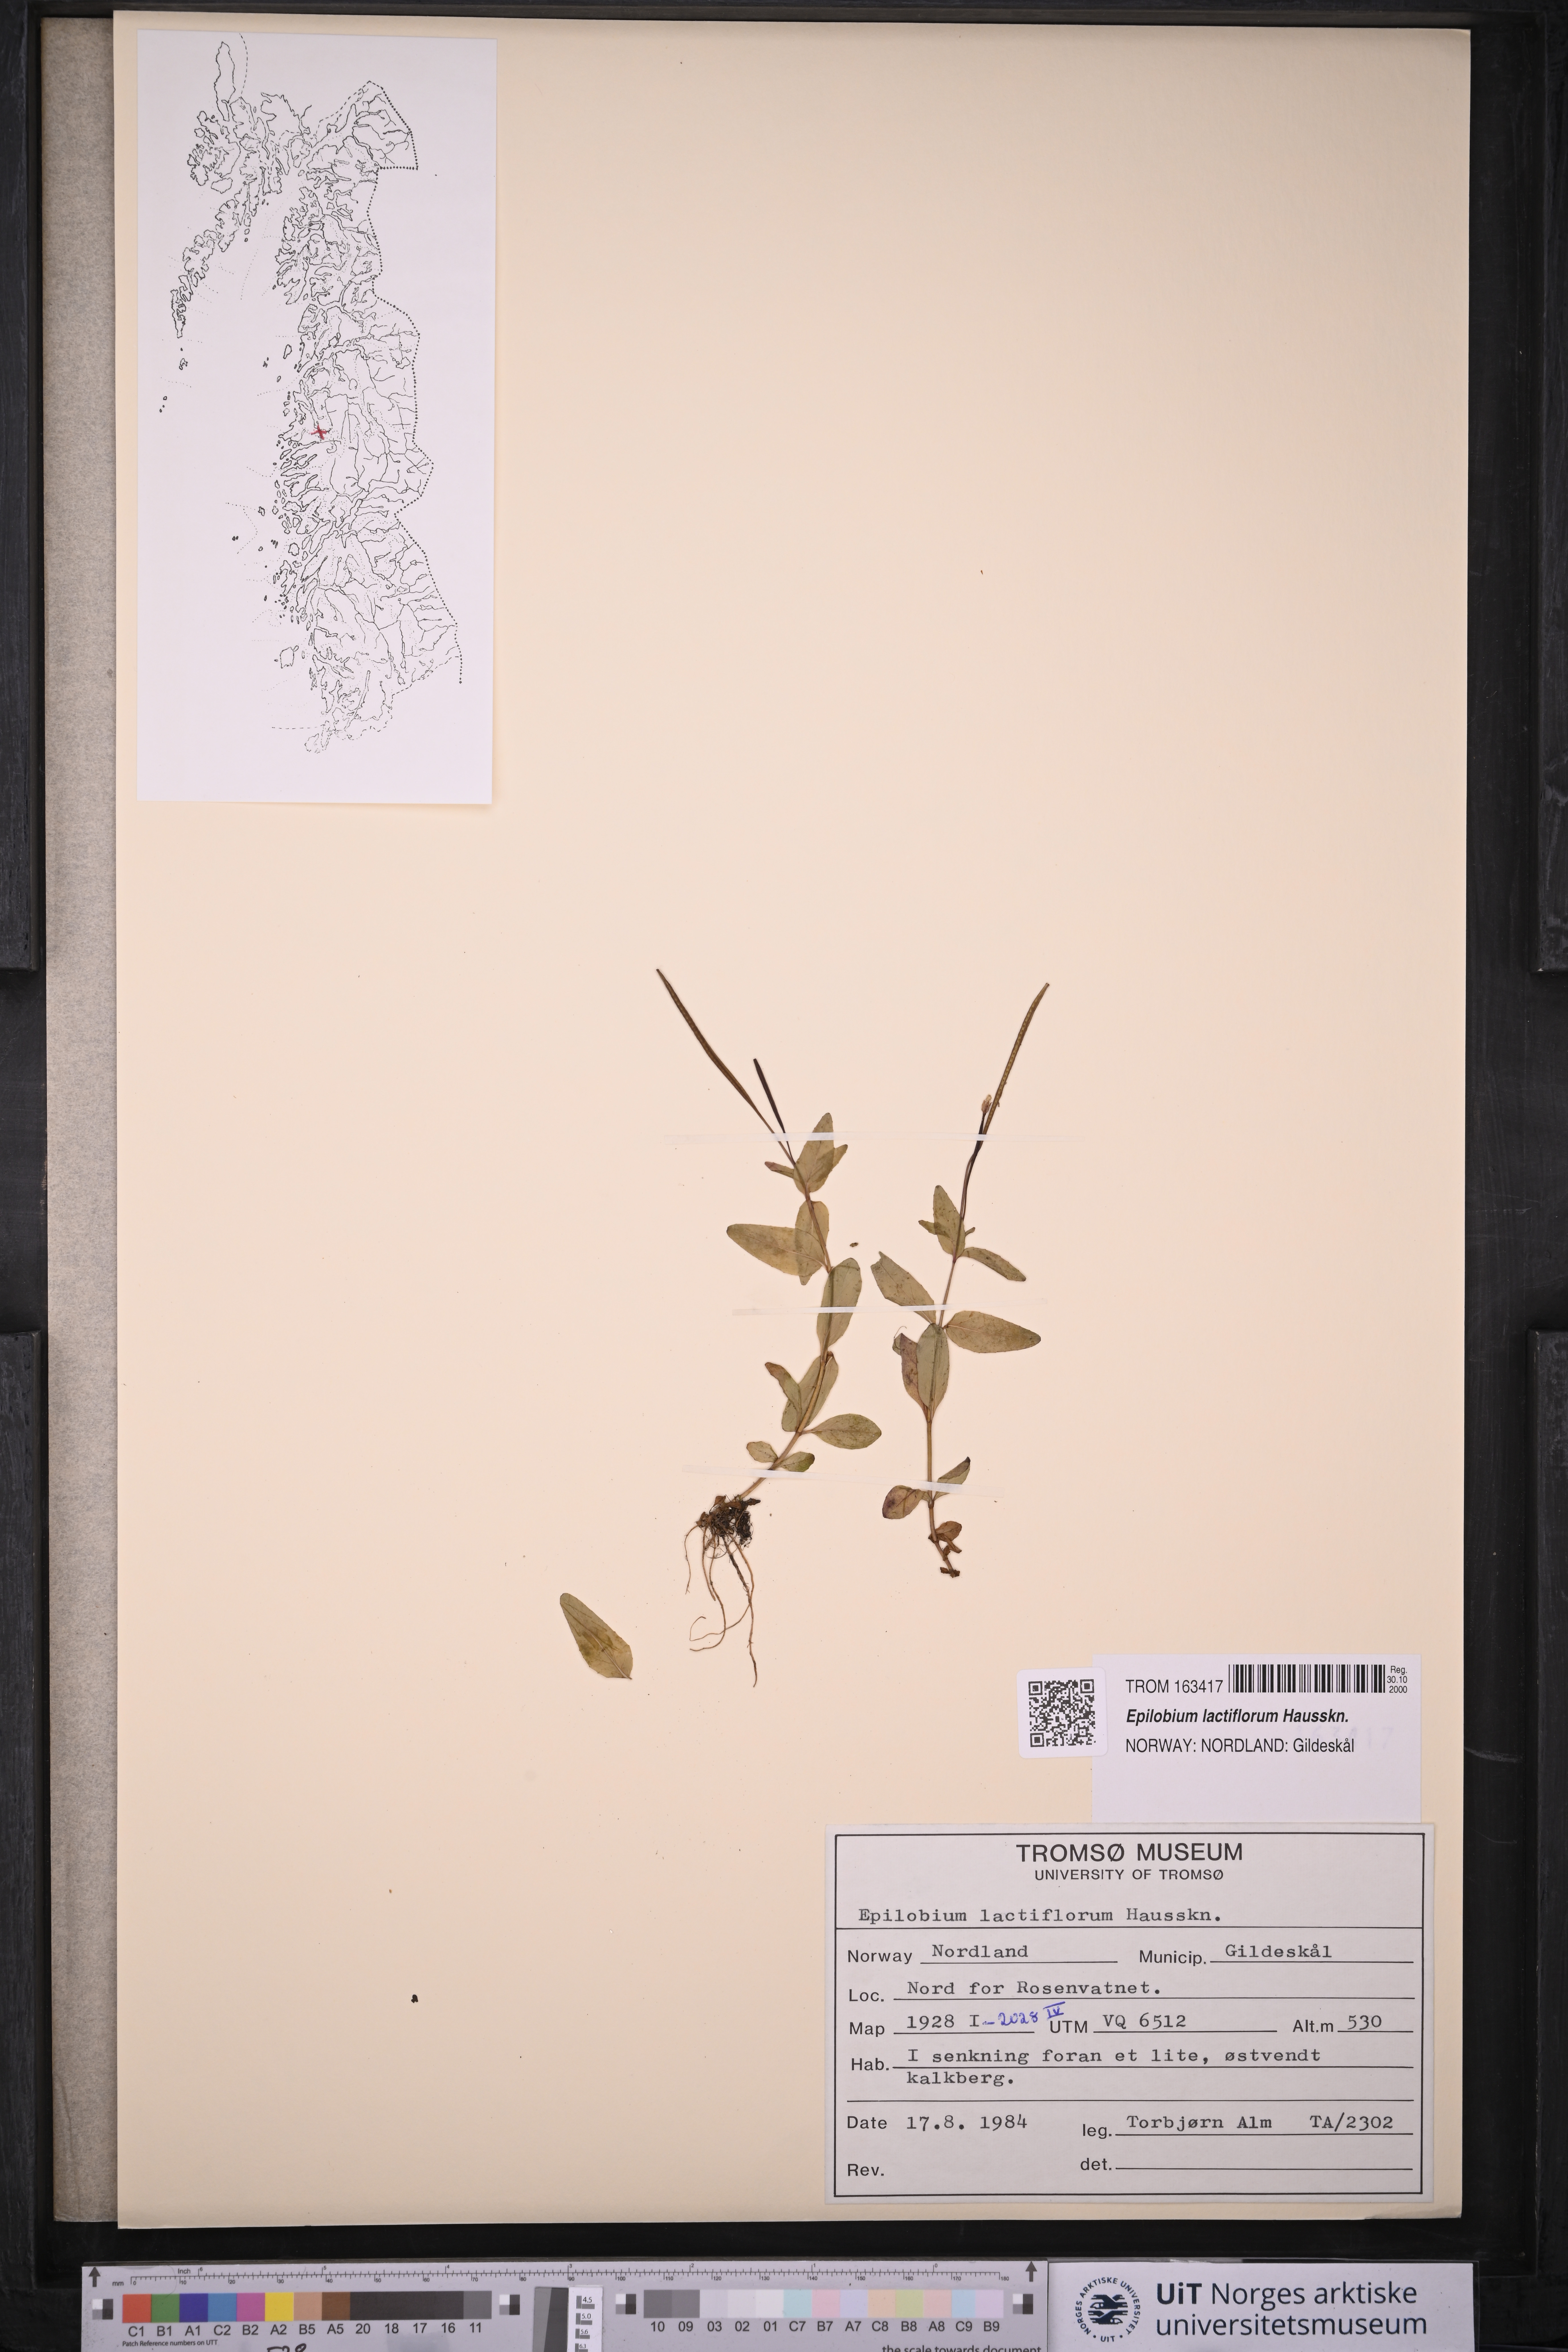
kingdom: Plantae
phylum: Tracheophyta
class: Magnoliopsida
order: Myrtales
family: Onagraceae
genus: Epilobium
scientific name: Epilobium lactiflorum
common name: Milkflower willowherb
